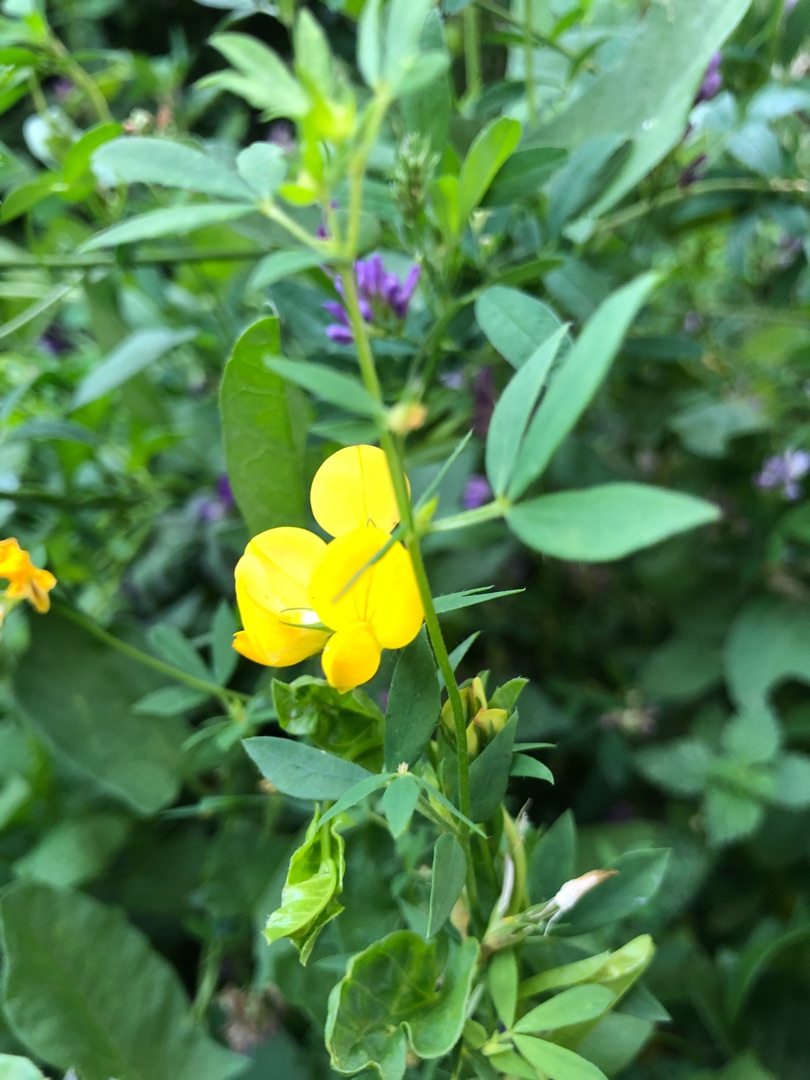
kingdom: Plantae
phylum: Tracheophyta
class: Magnoliopsida
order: Fabales
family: Fabaceae
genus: Lotus
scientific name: Lotus corniculatus
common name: Almindelig kællingetand
